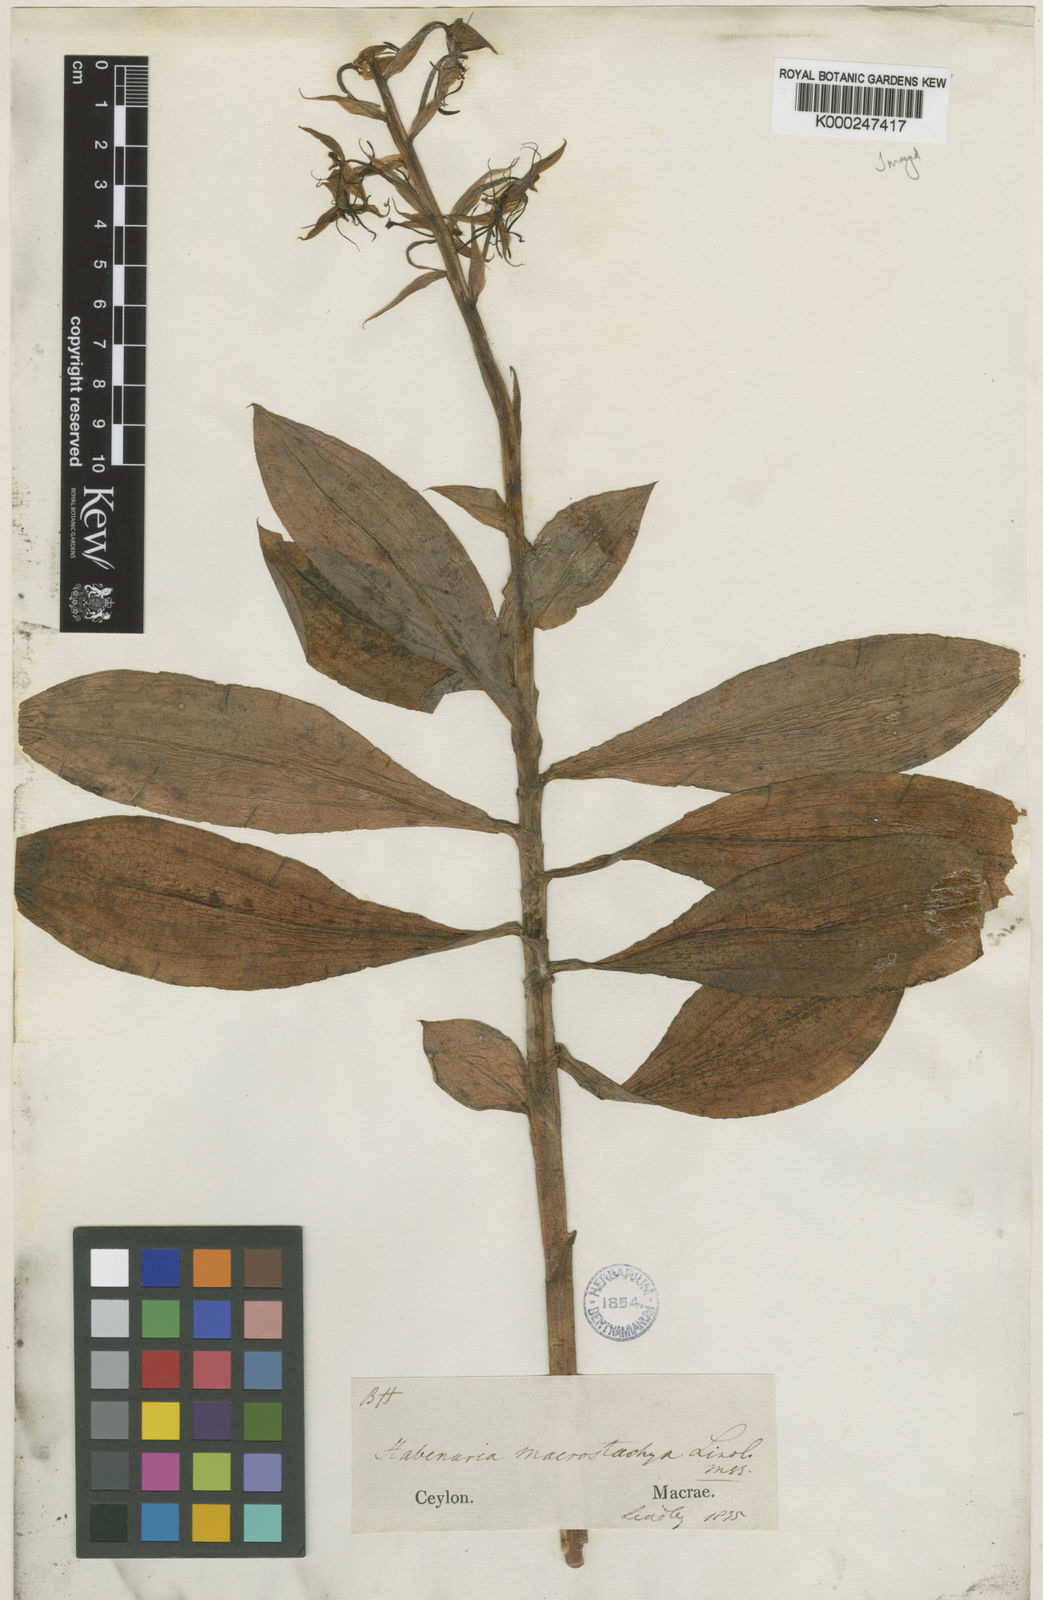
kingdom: Plantae
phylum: Tracheophyta
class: Liliopsida
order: Asparagales
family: Orchidaceae
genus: Habenaria
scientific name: Habenaria macrostachya
